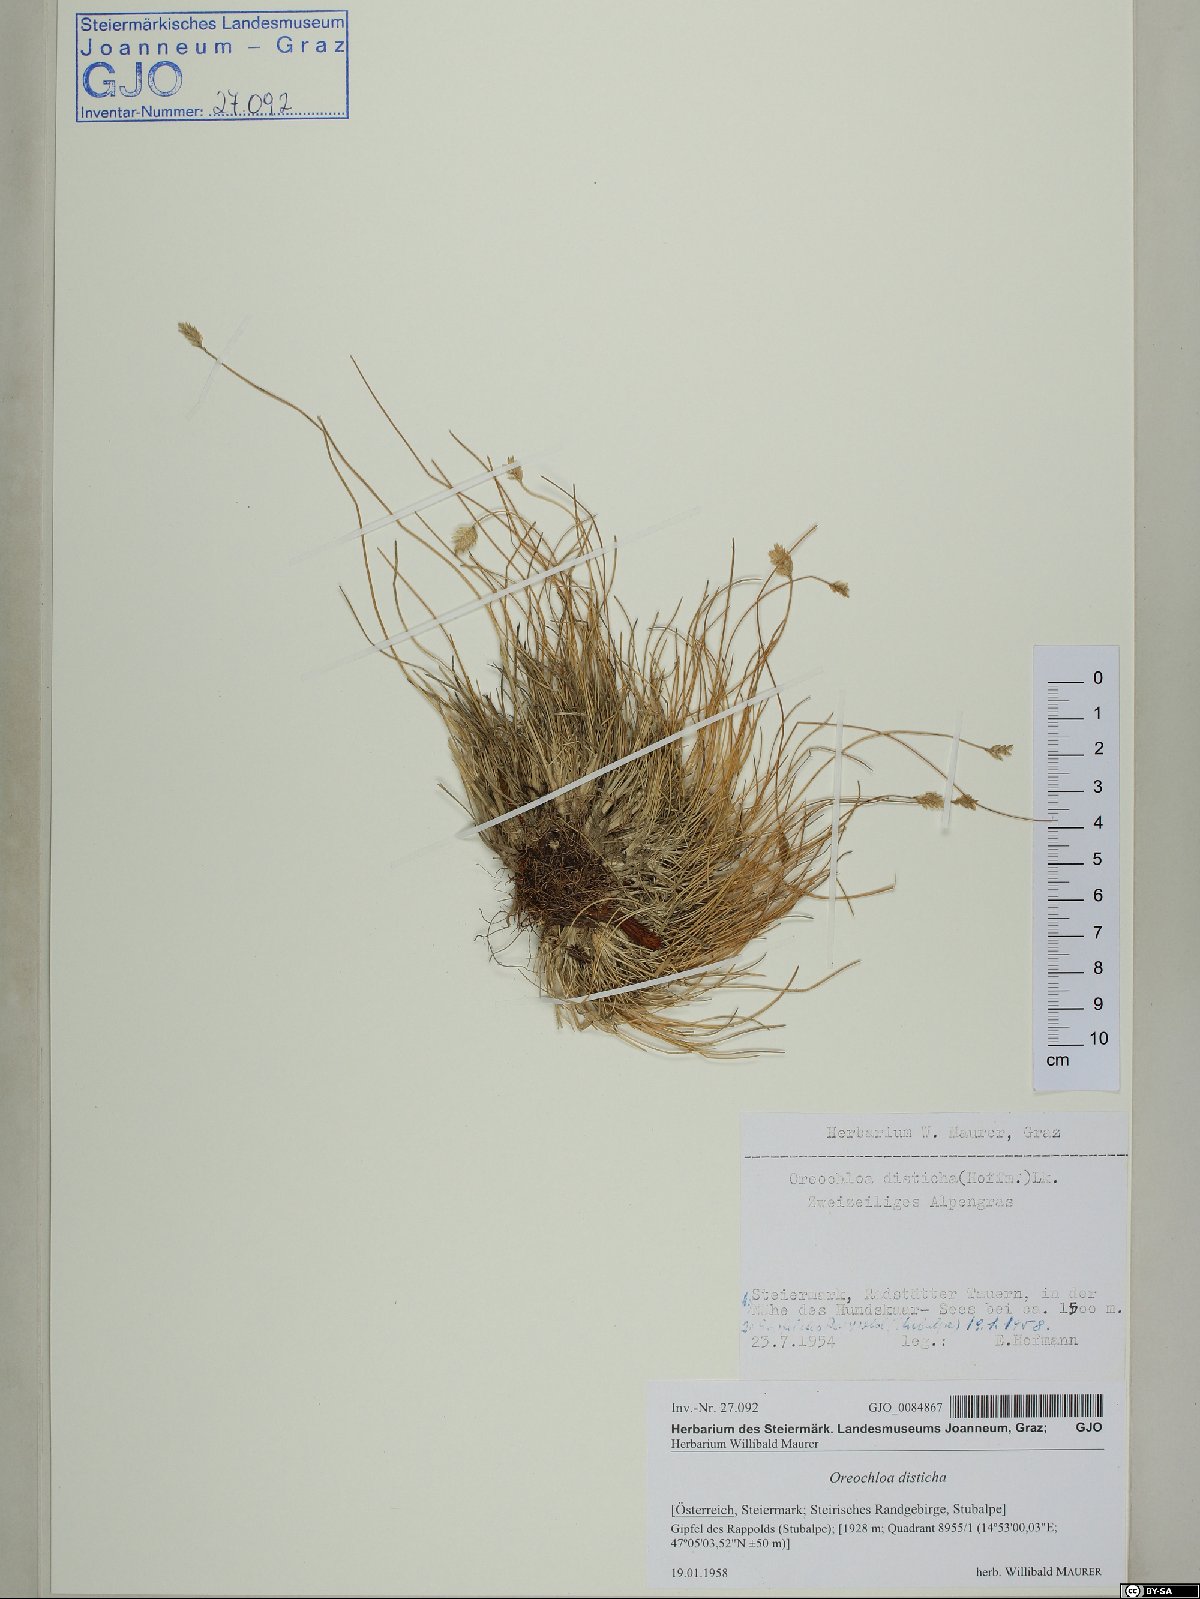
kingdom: Plantae
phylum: Tracheophyta
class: Liliopsida
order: Poales
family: Poaceae
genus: Oreochloa
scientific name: Oreochloa disticha
